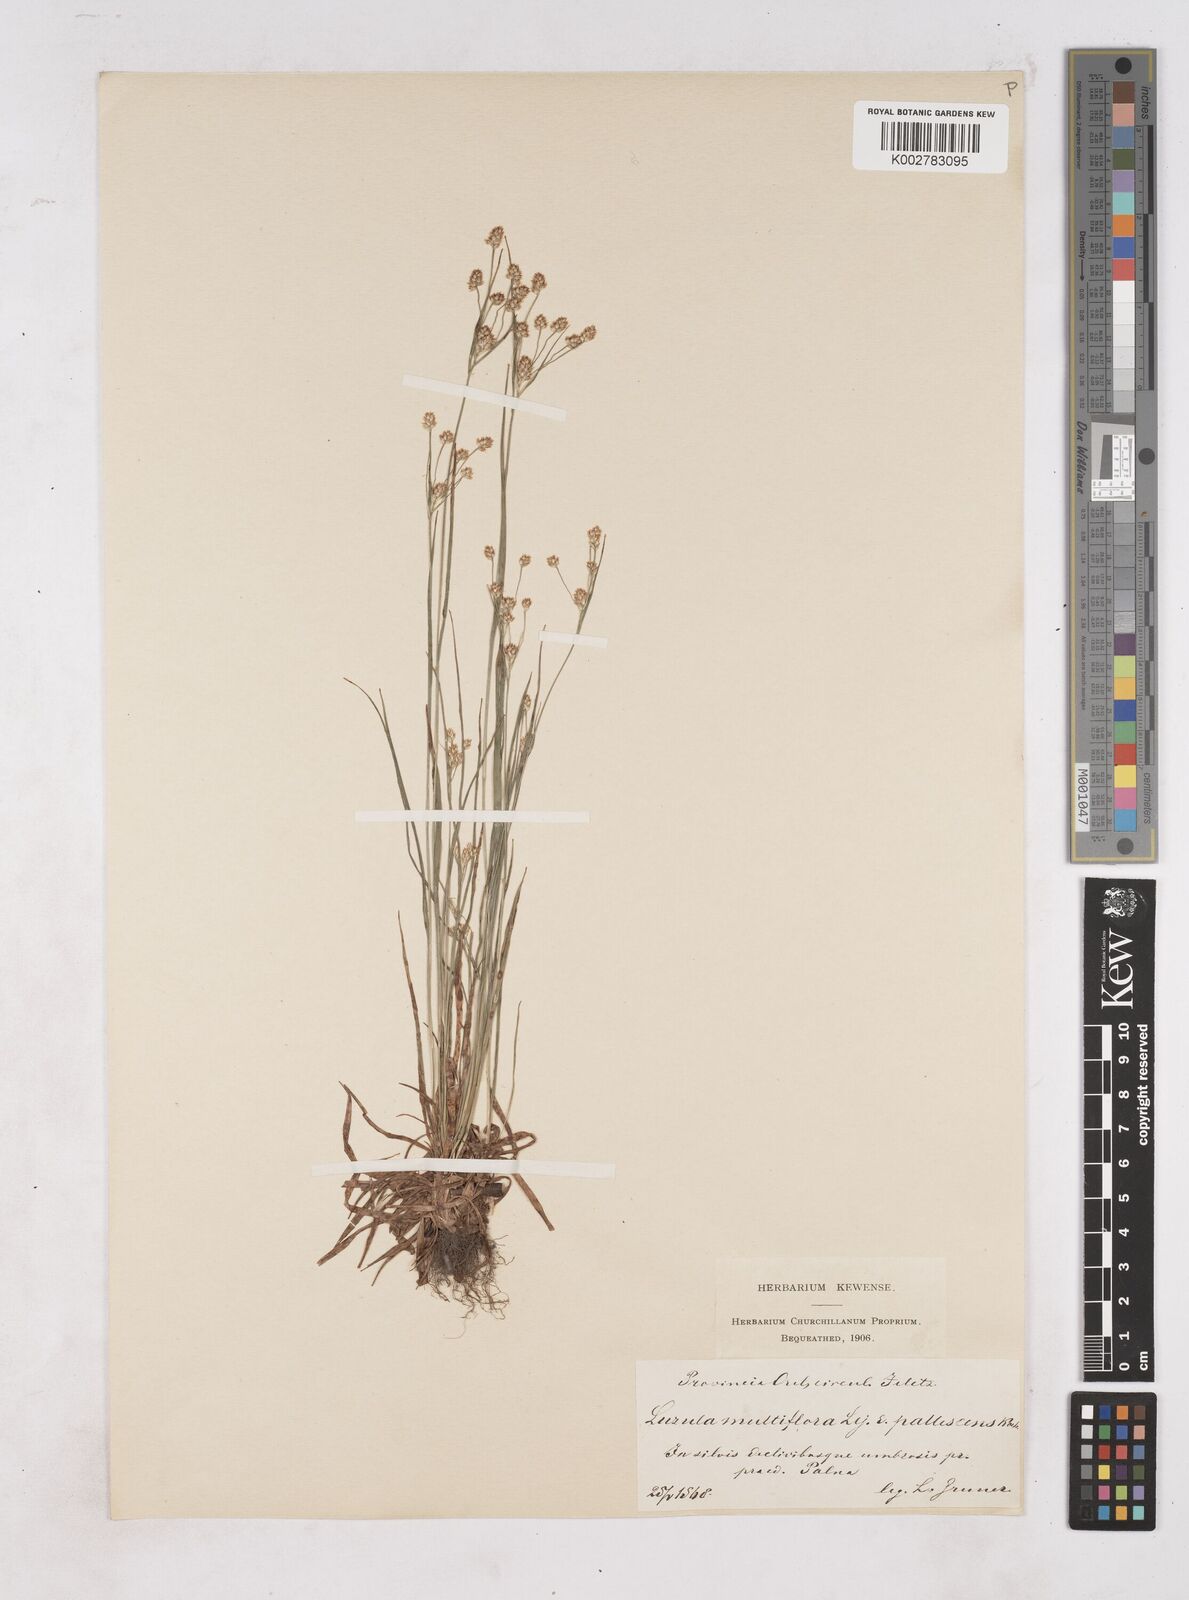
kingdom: Plantae
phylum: Tracheophyta
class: Liliopsida
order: Poales
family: Juncaceae
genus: Luzula
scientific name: Luzula pallescens
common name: Fen wood-rush
